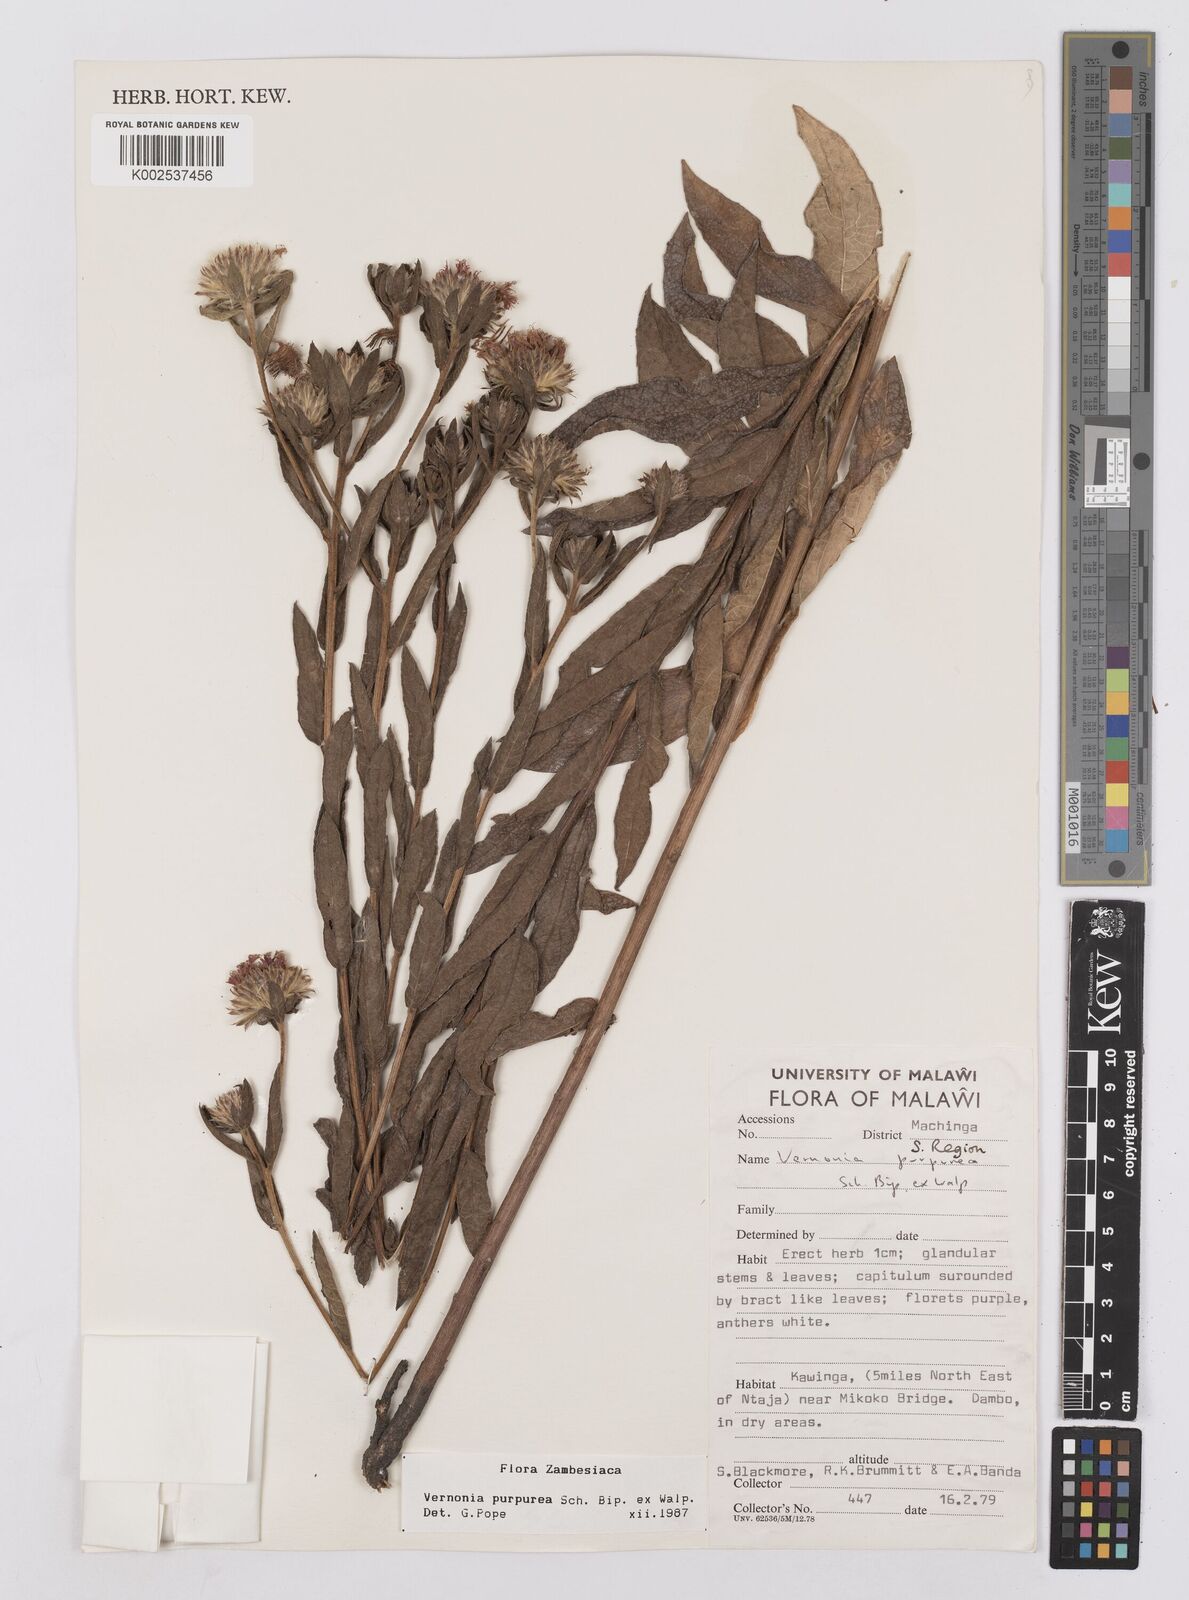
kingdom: Plantae
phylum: Tracheophyta
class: Magnoliopsida
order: Asterales
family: Asteraceae
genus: Nothovernonia
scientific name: Nothovernonia purpurea
